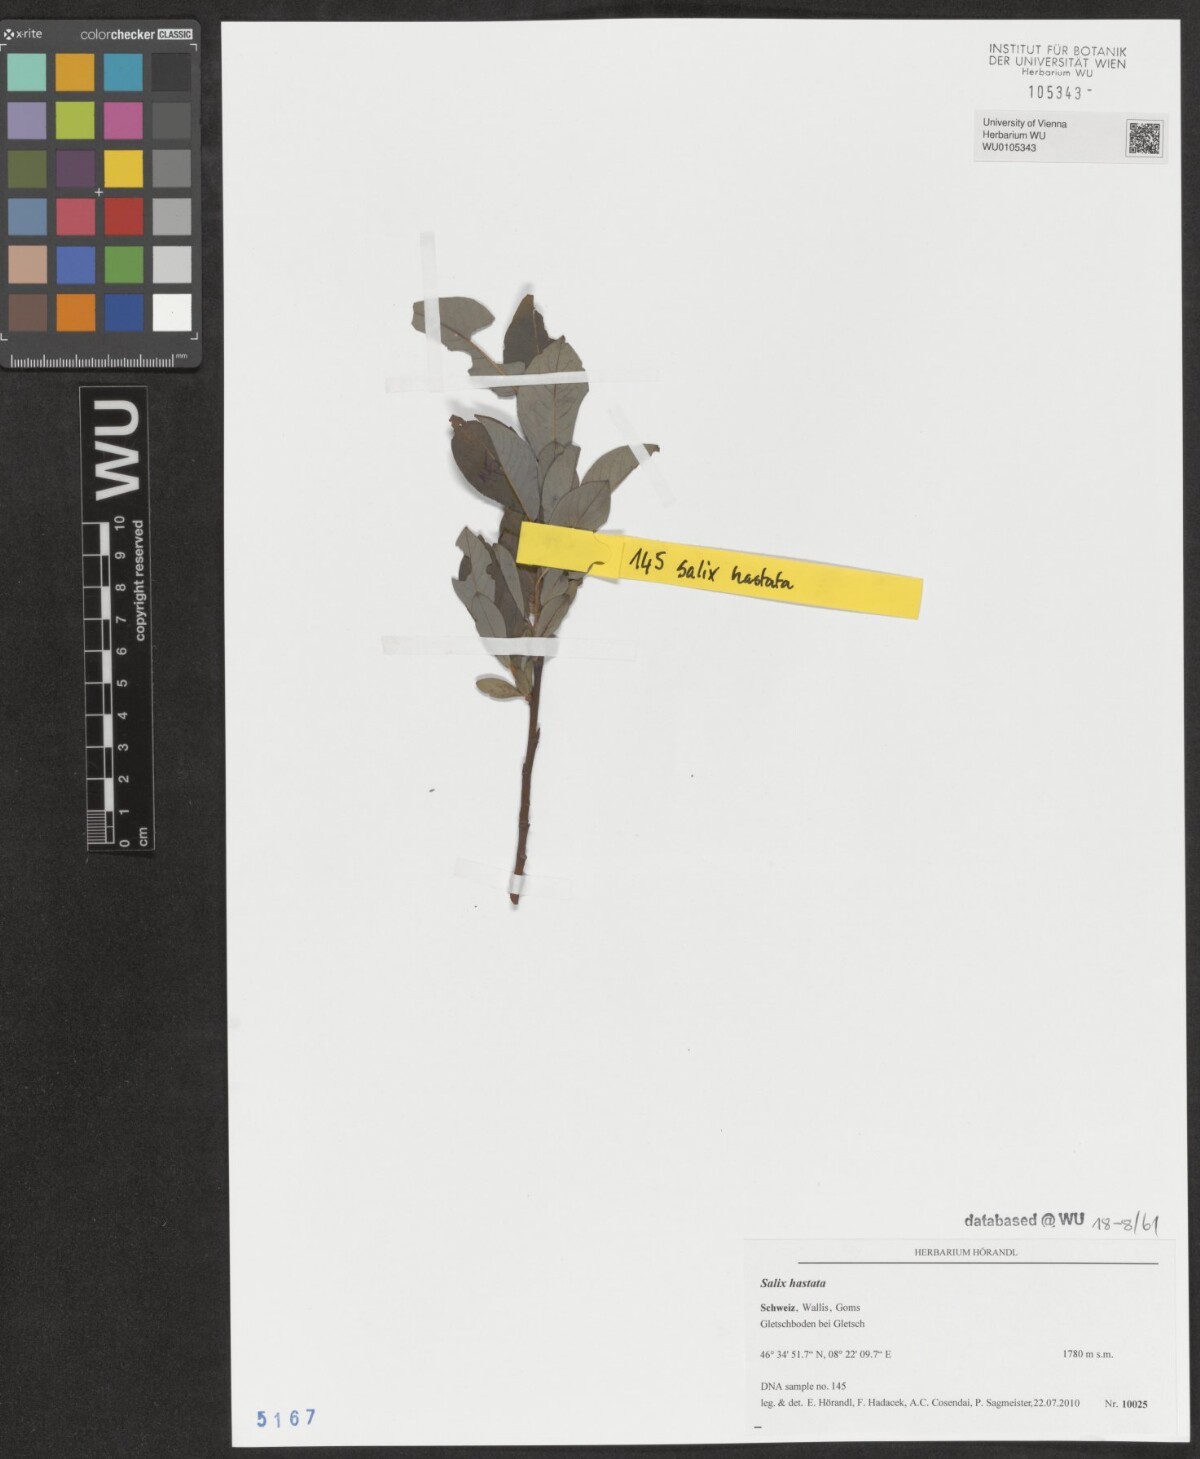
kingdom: Plantae
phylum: Tracheophyta
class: Magnoliopsida
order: Malpighiales
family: Salicaceae
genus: Salix
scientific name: Salix hastata
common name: Halberd willow
